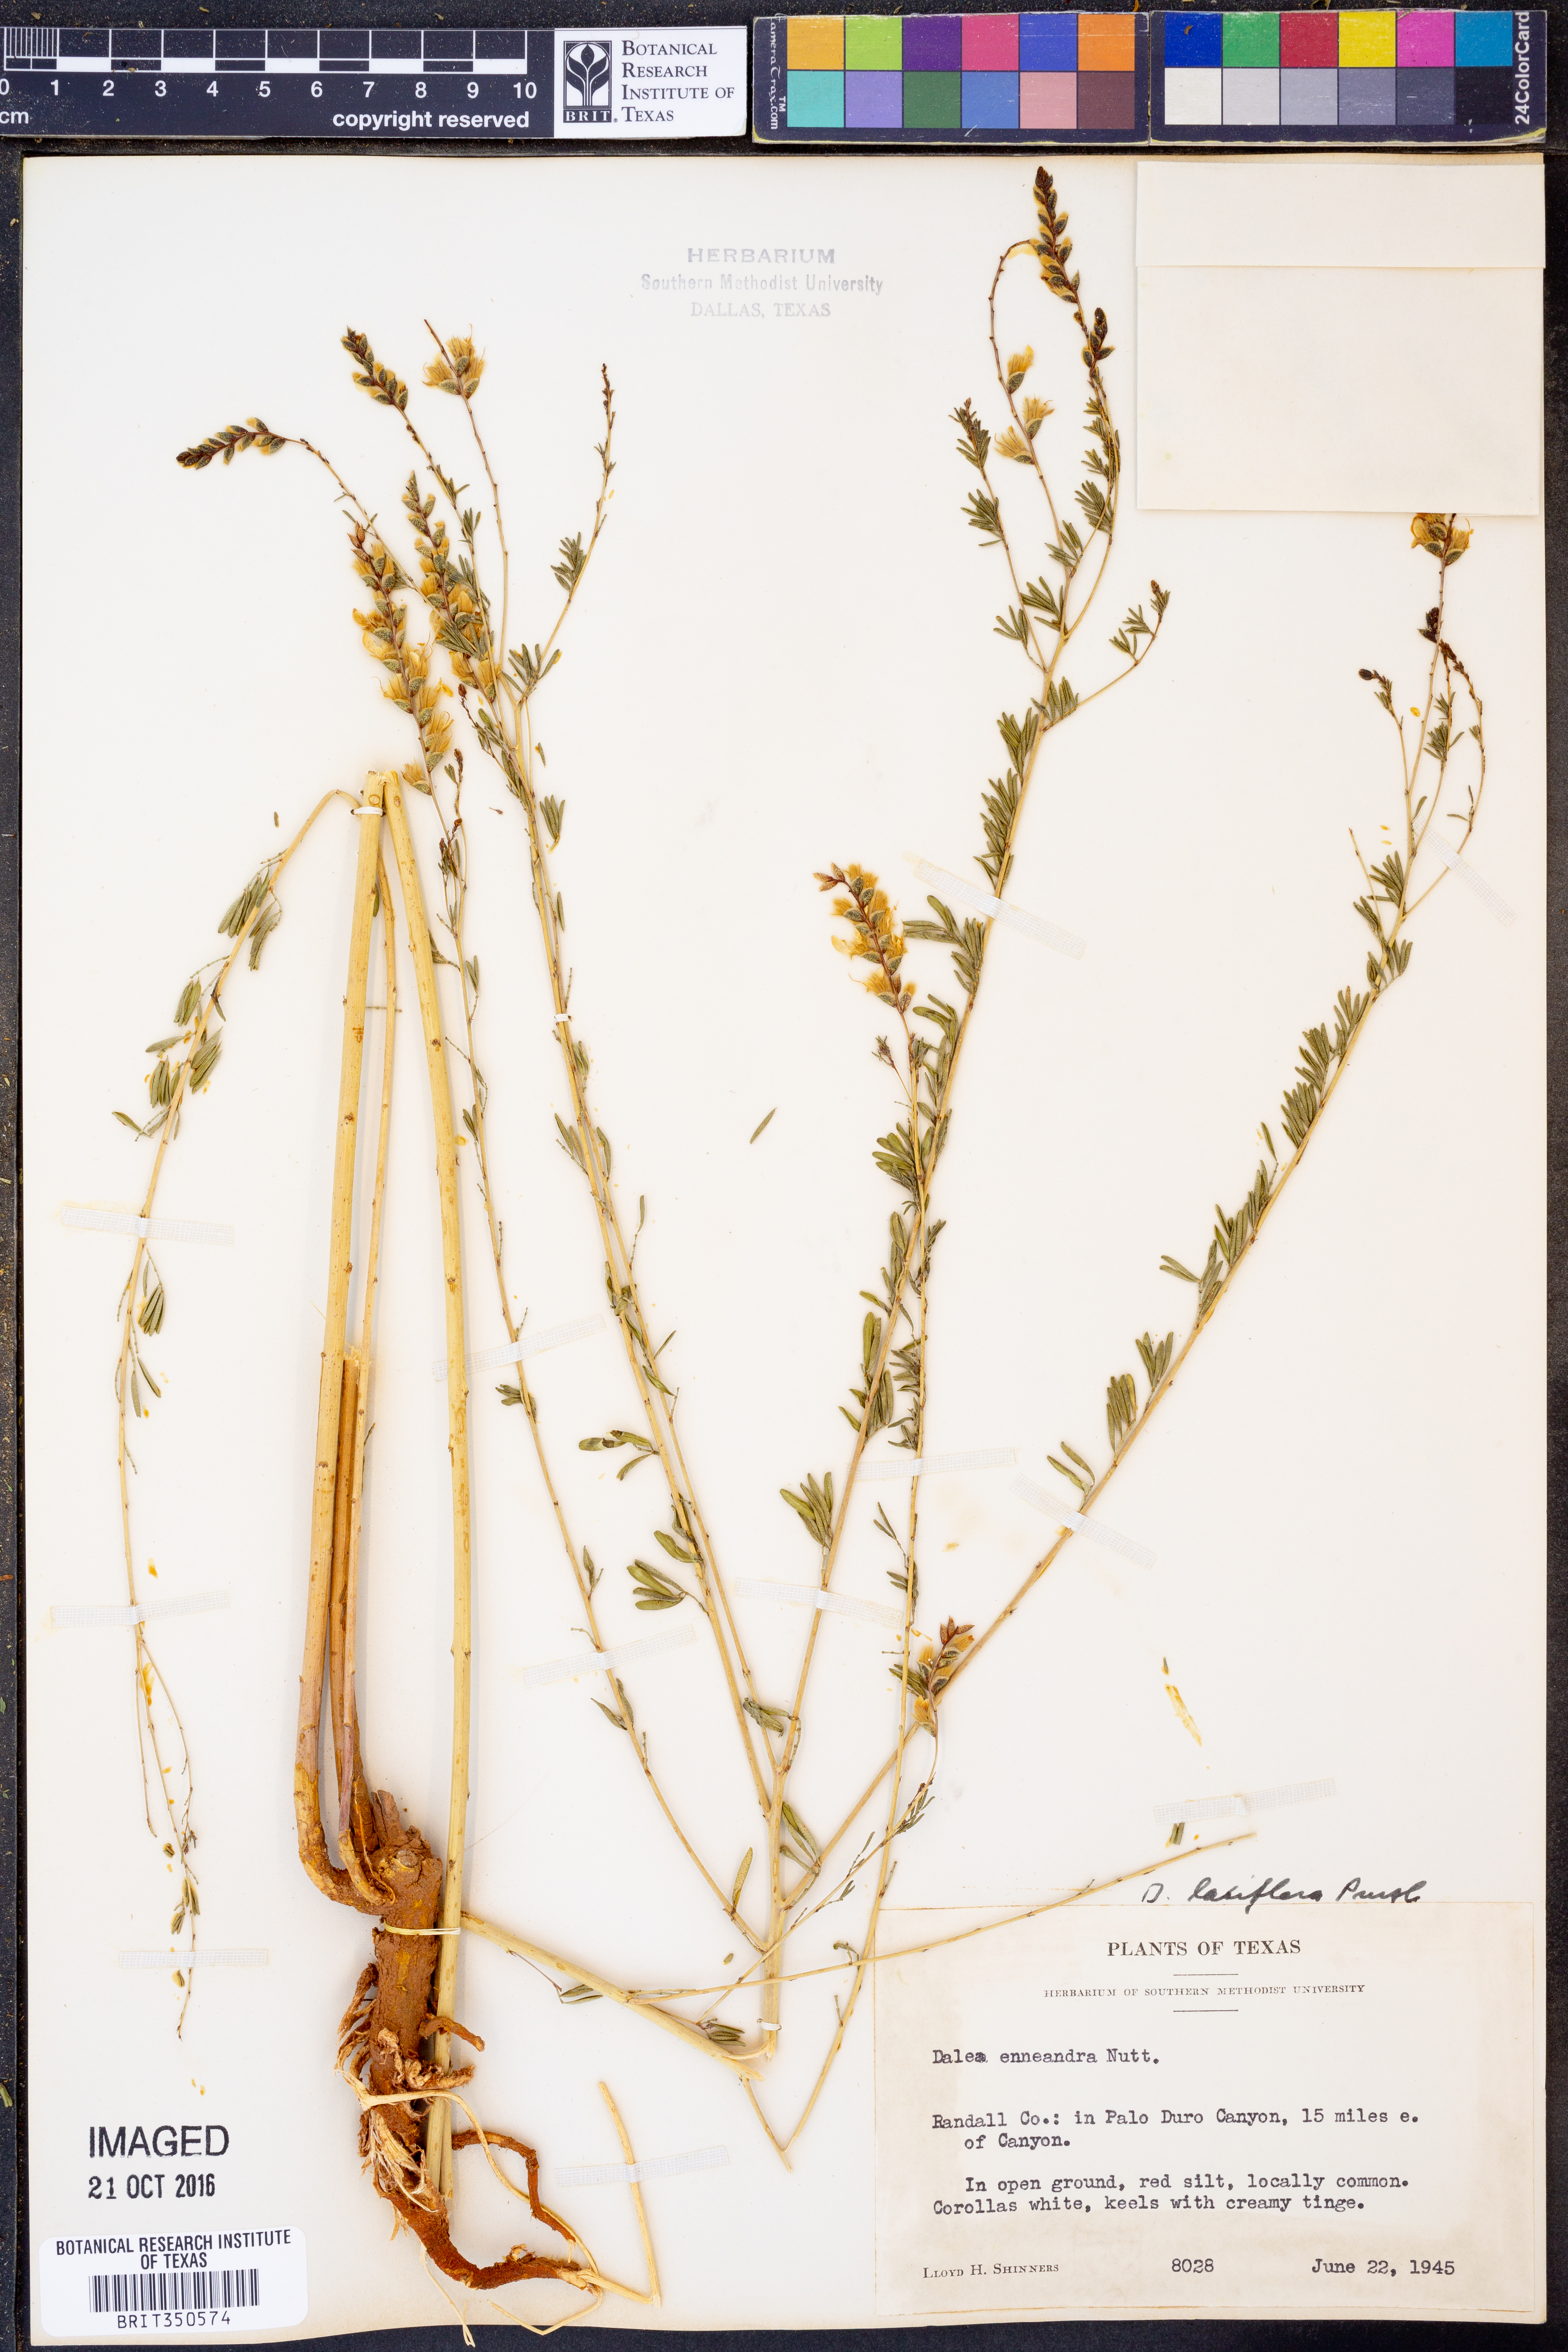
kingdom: Plantae
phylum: Tracheophyta
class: Magnoliopsida
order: Fabales
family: Fabaceae
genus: Dalea
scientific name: Dalea enneandra
